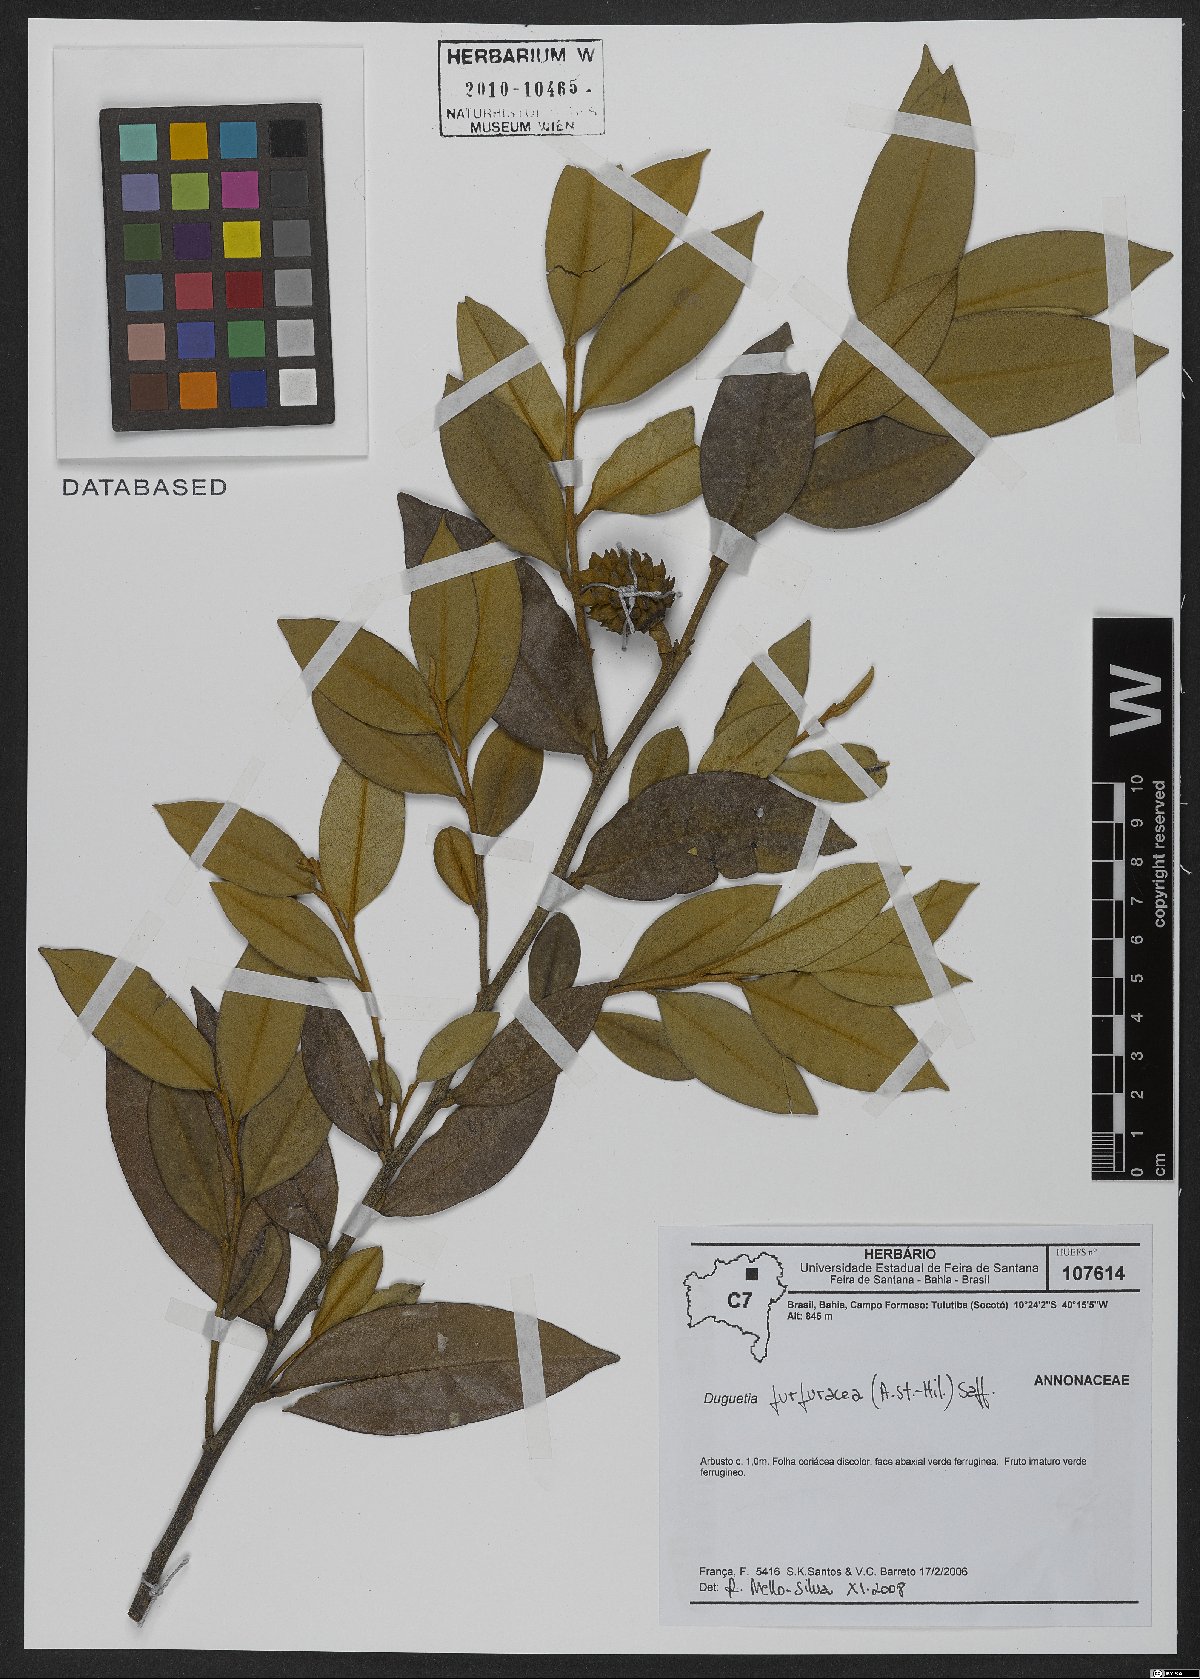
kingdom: Plantae
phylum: Tracheophyta
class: Magnoliopsida
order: Magnoliales
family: Annonaceae
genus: Duguetia
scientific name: Duguetia furfuracea
